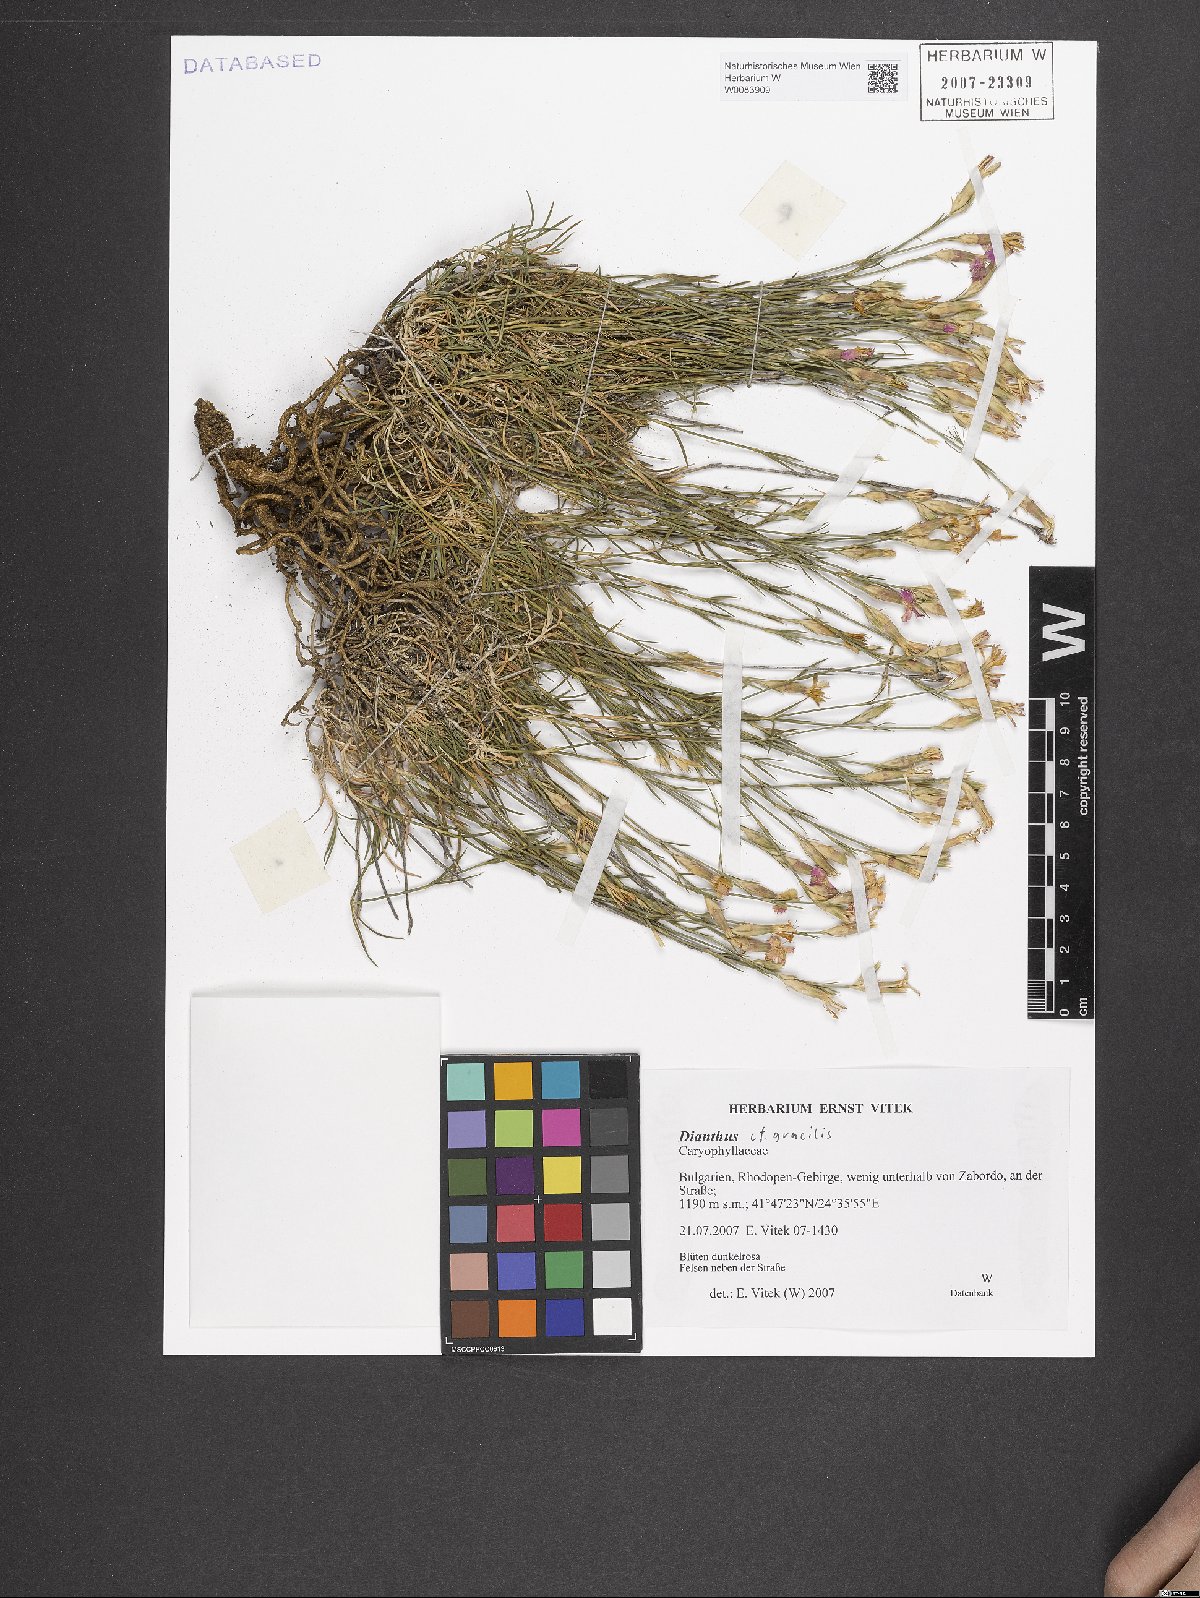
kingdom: Plantae
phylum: Tracheophyta
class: Magnoliopsida
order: Caryophyllales
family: Caryophyllaceae
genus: Dianthus
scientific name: Dianthus gracilis
